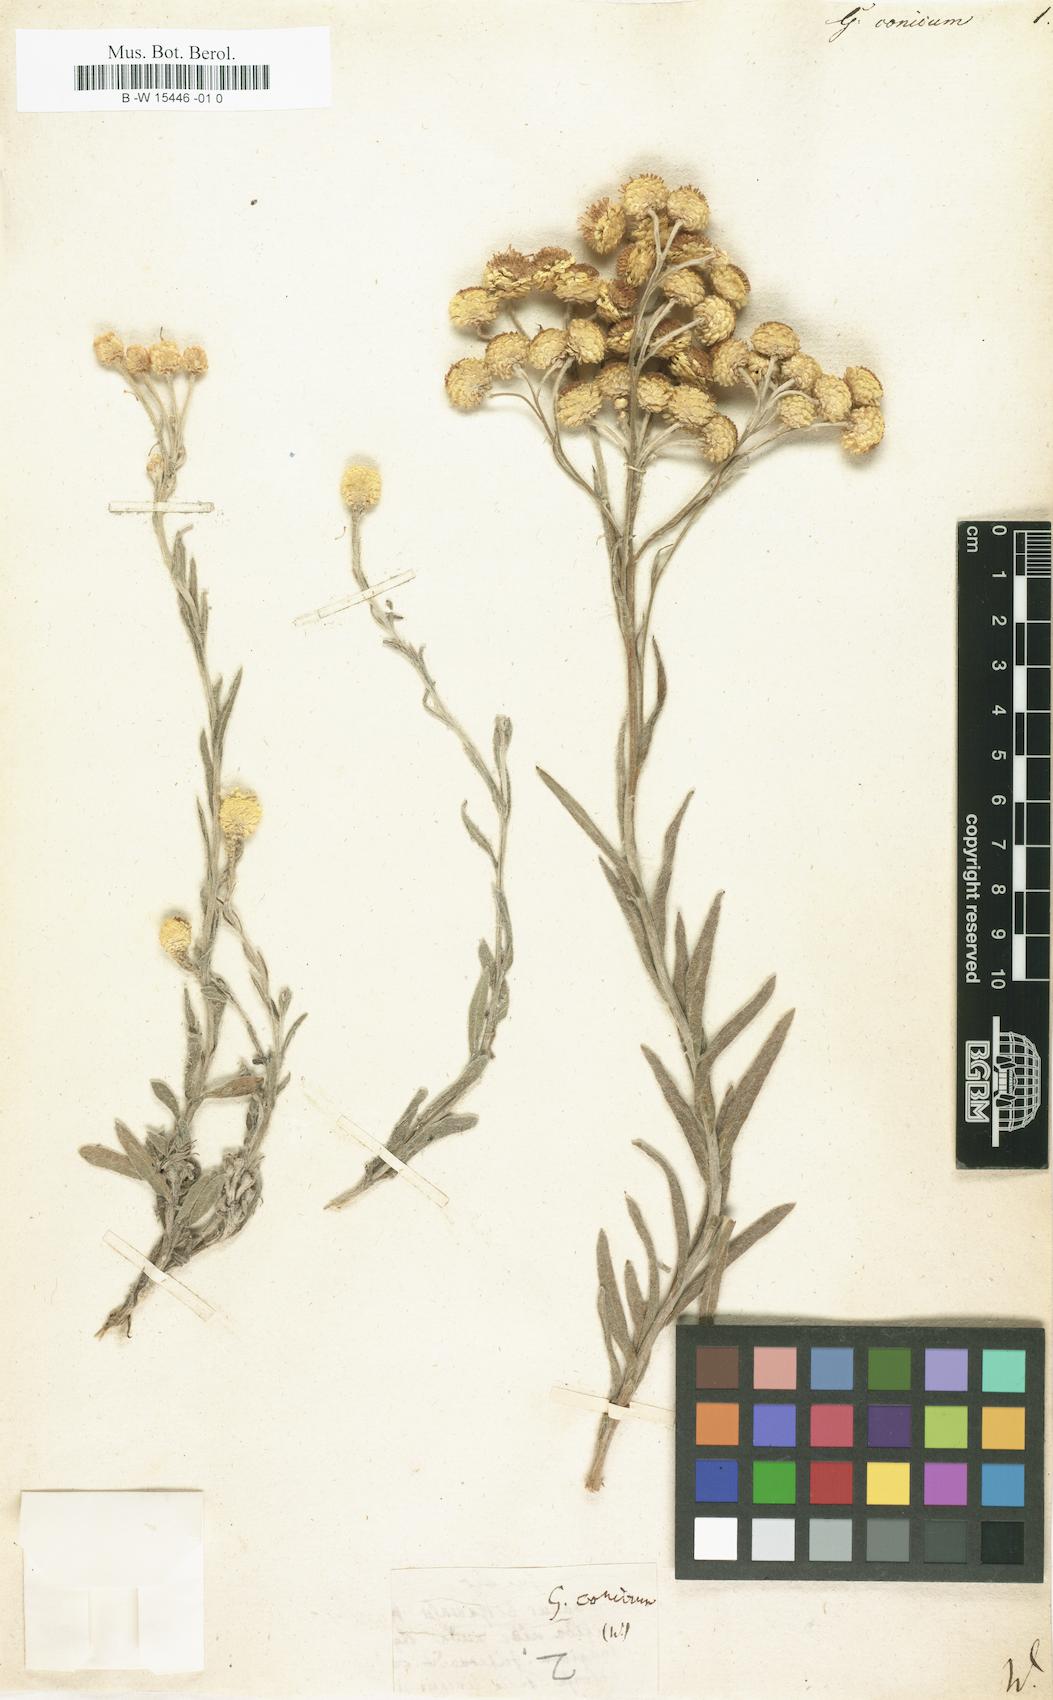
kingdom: Plantae
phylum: Tracheophyta
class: Magnoliopsida
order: Asterales
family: Asteraceae
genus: Gnaphalium
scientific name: Gnaphalium conicum
